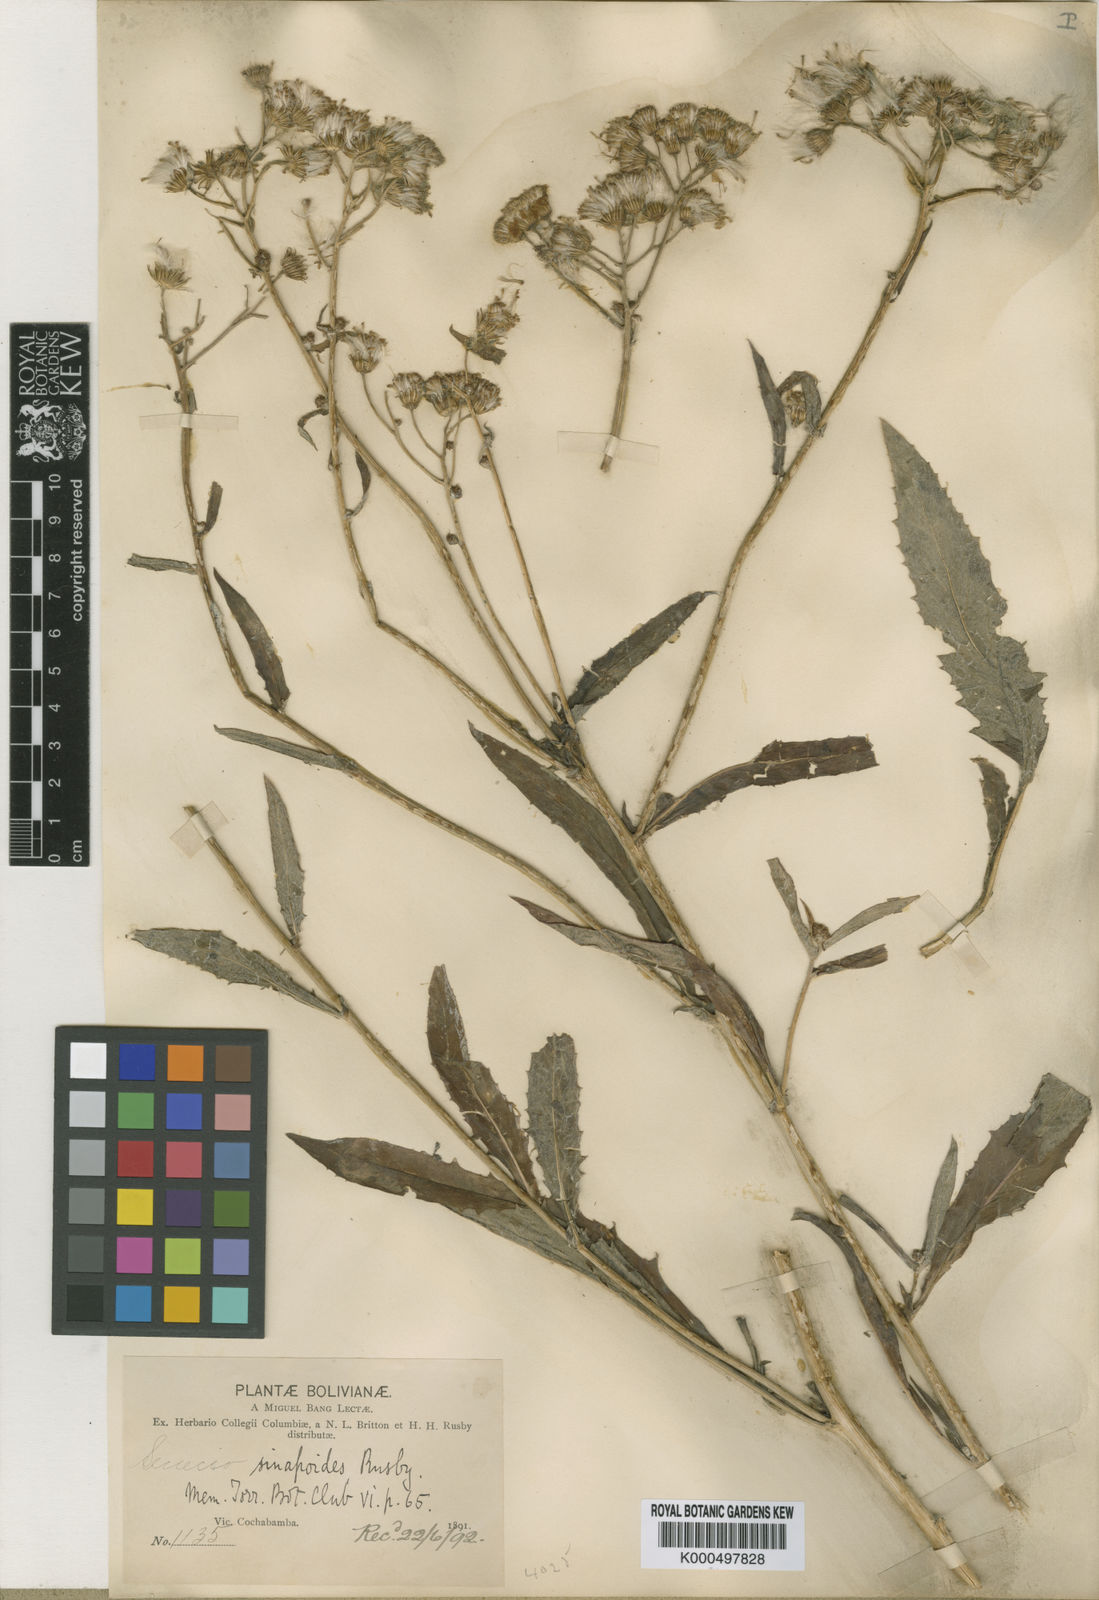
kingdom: Plantae
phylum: Tracheophyta
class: Magnoliopsida
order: Asterales
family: Asteraceae
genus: Senecio
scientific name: Senecio sinapoides
